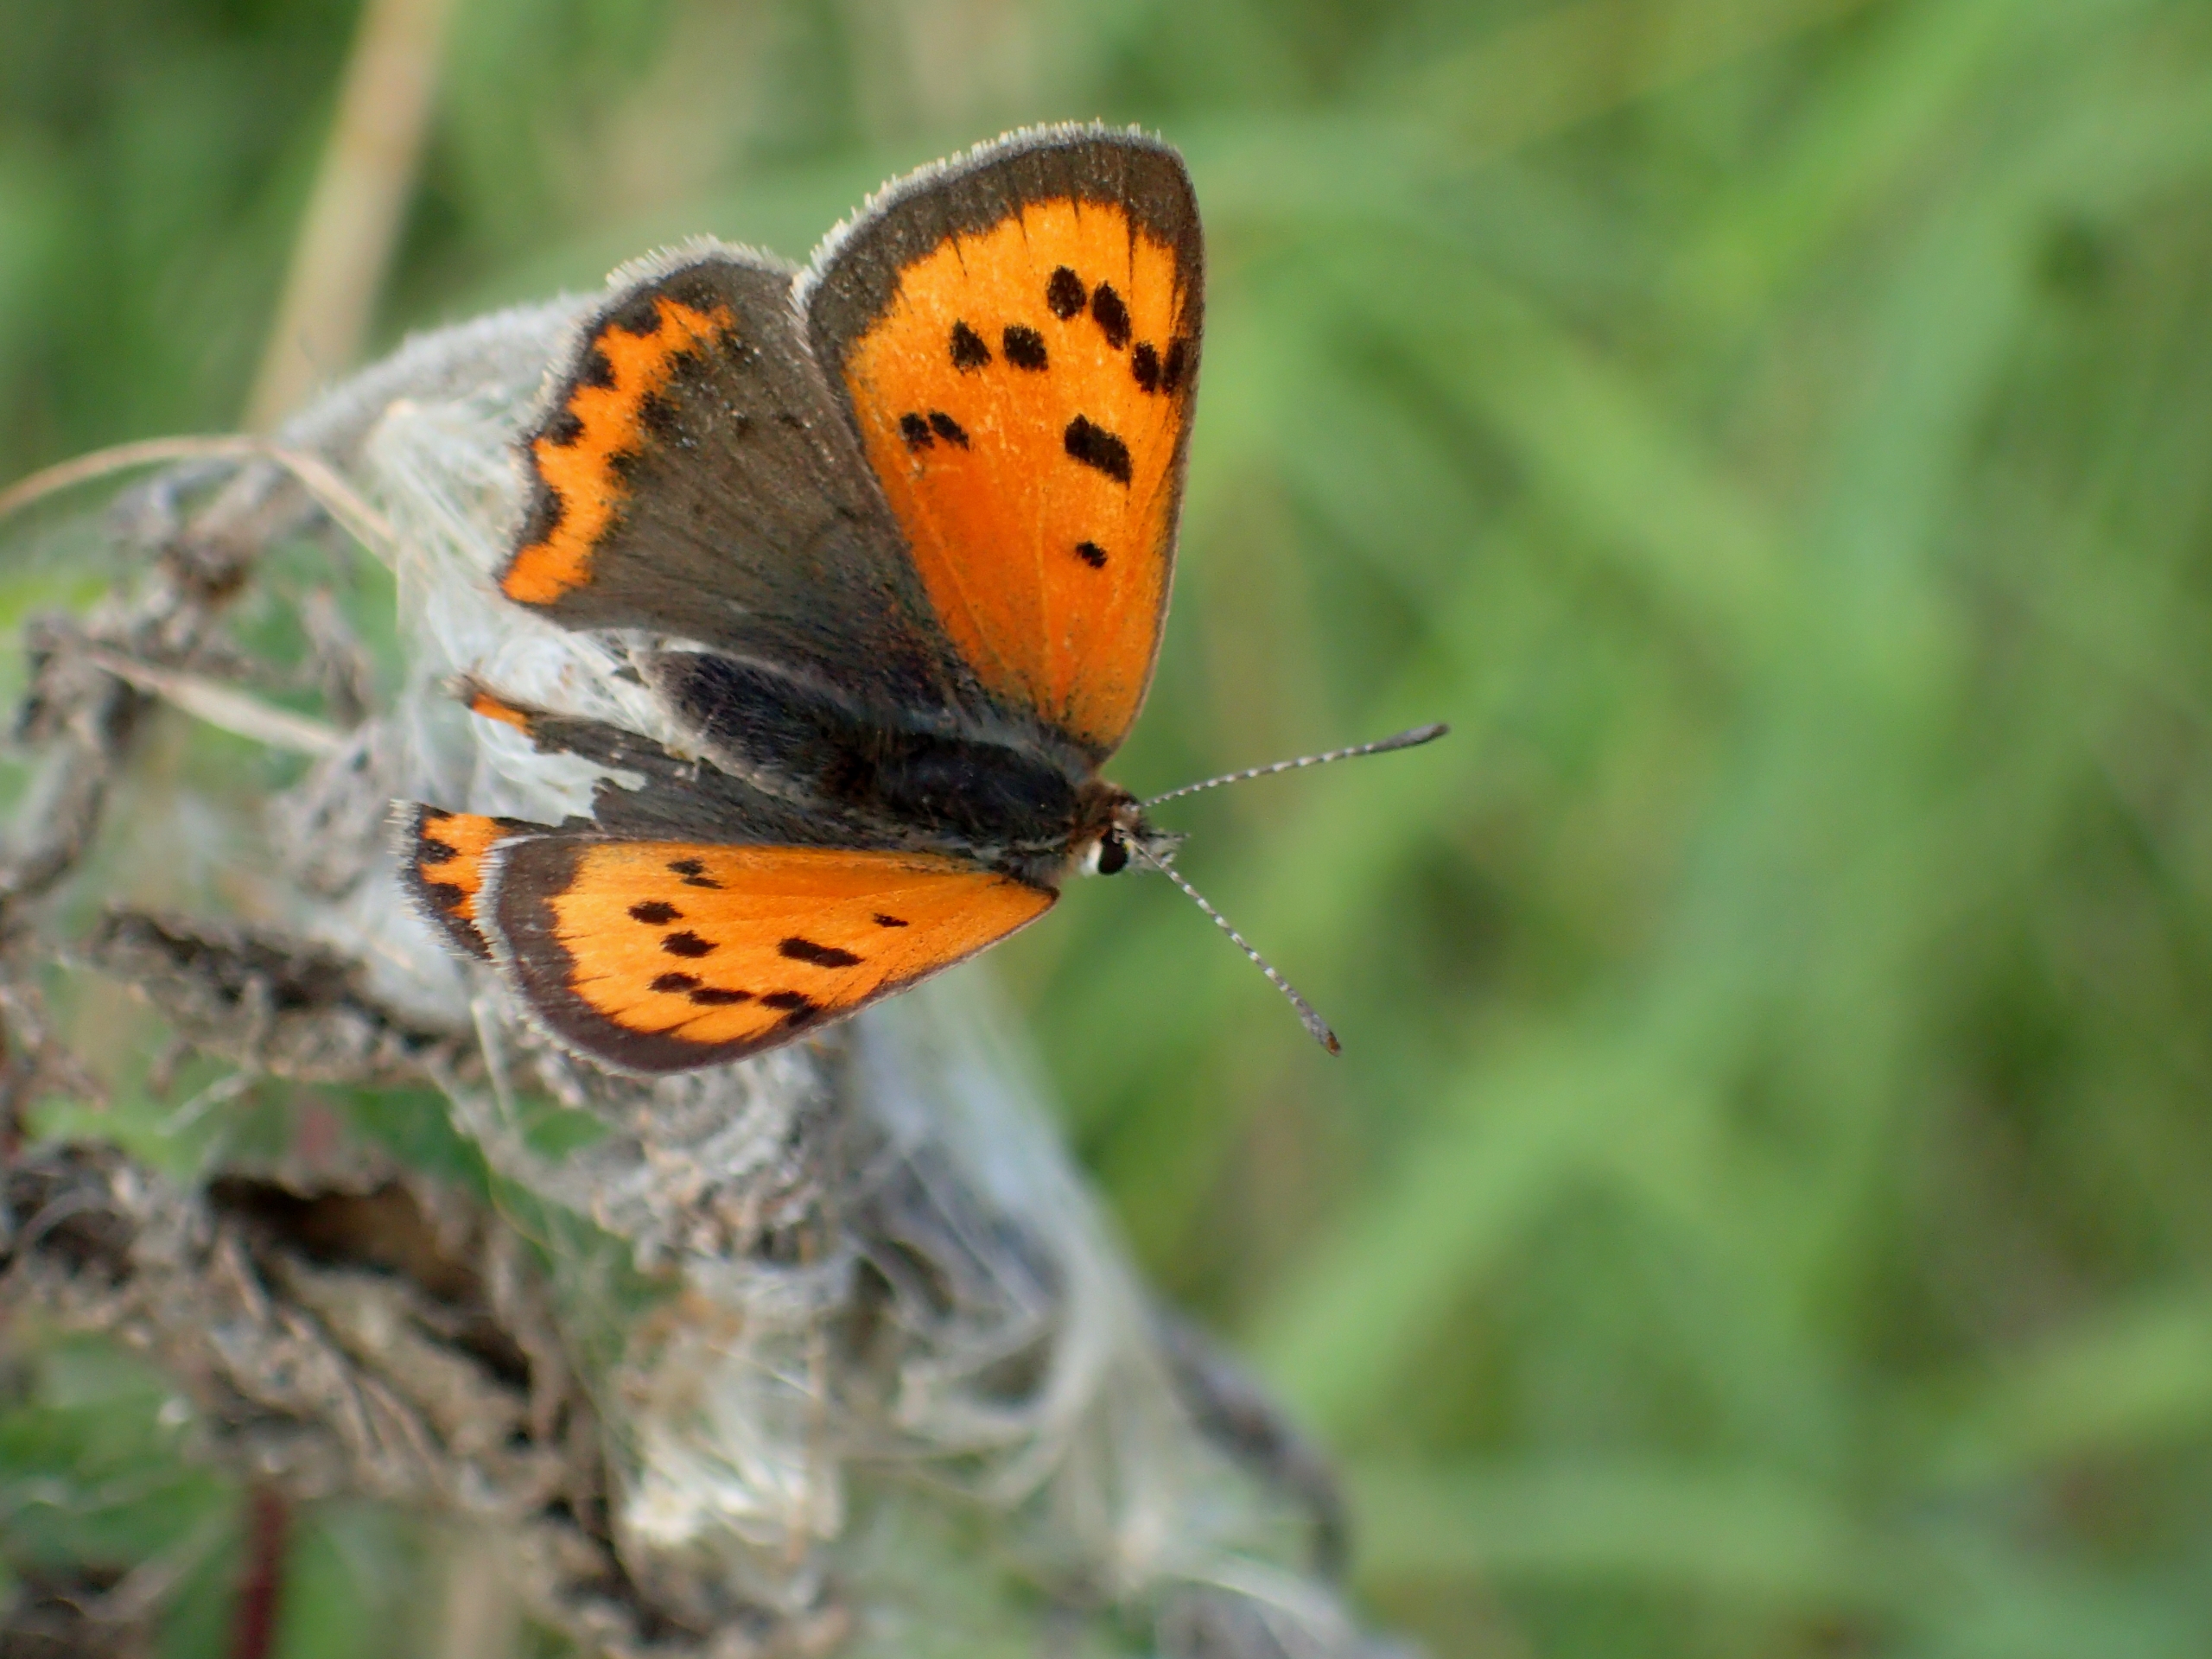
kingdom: Animalia
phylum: Arthropoda
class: Insecta
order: Lepidoptera
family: Lycaenidae
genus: Lycaena
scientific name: Lycaena phlaeas
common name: Lille ildfugl
